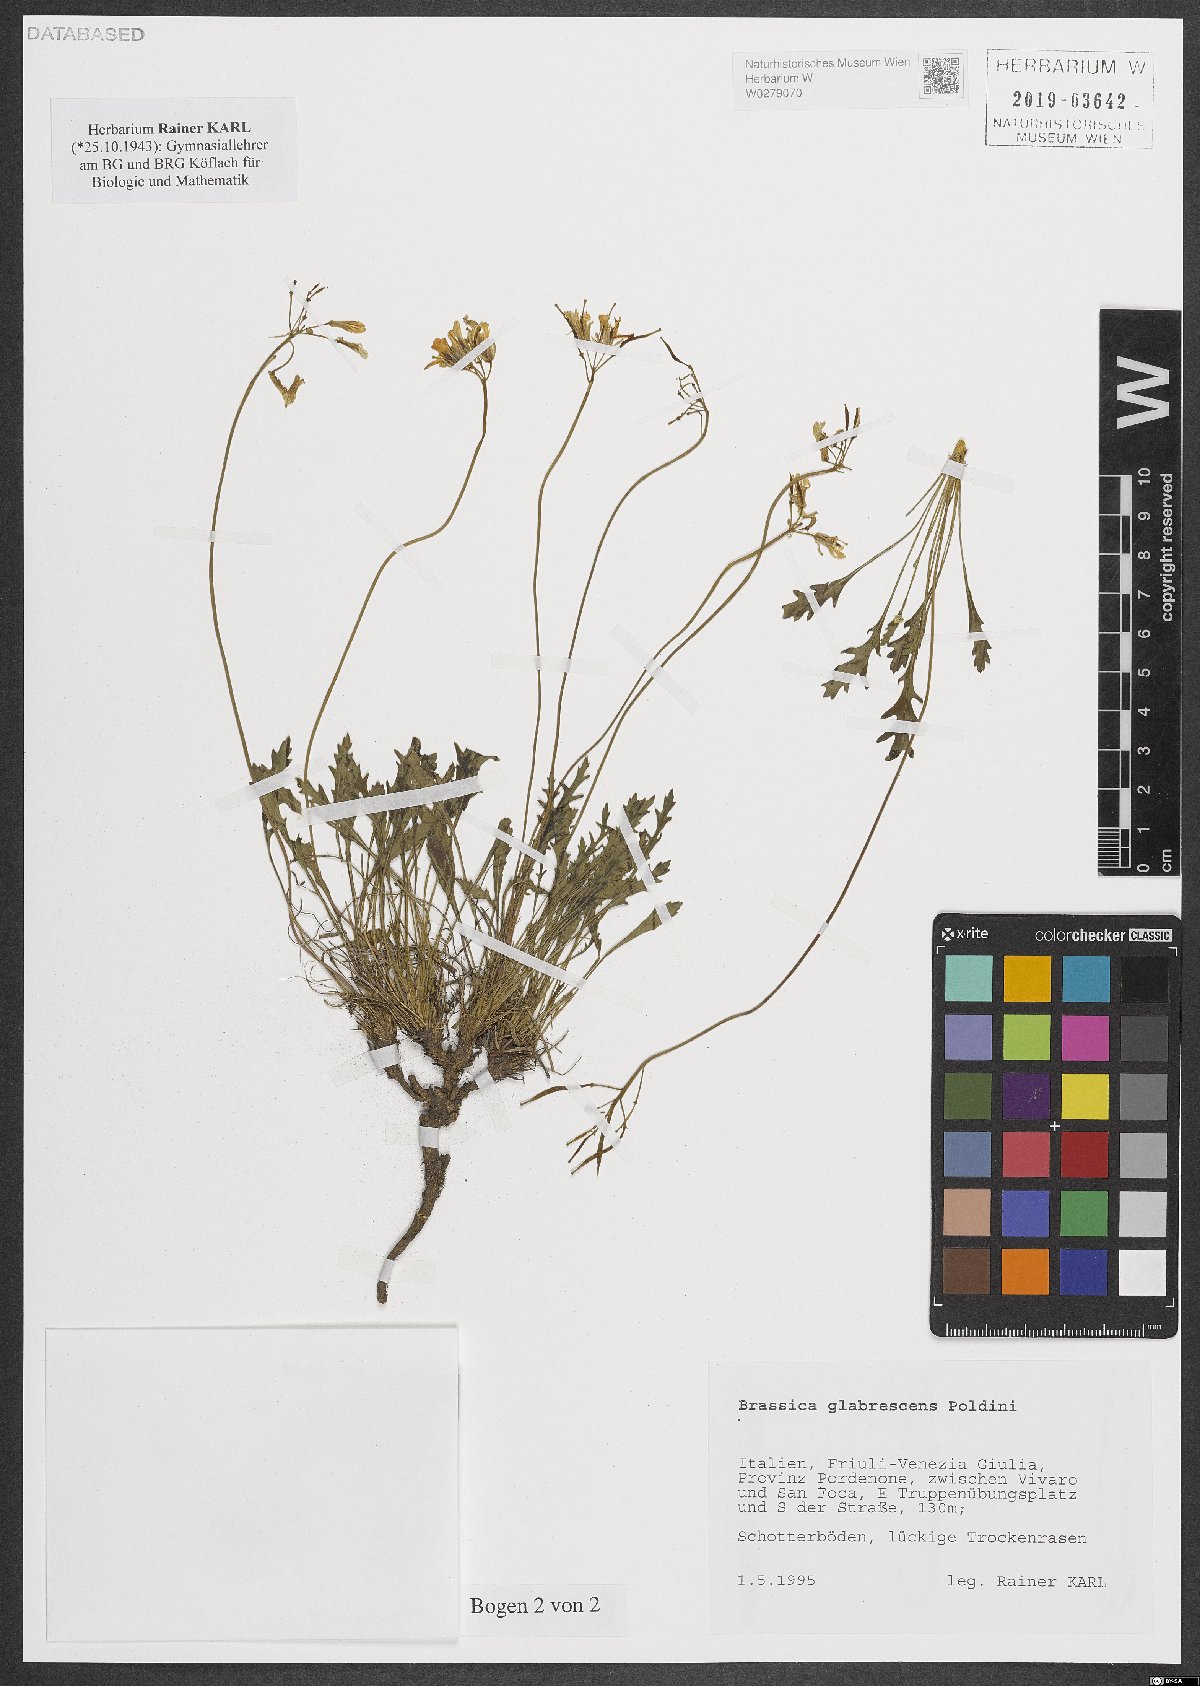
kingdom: Plantae
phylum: Tracheophyta
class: Magnoliopsida
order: Brassicales
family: Brassicaceae
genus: Brassica
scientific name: Brassica repanda
